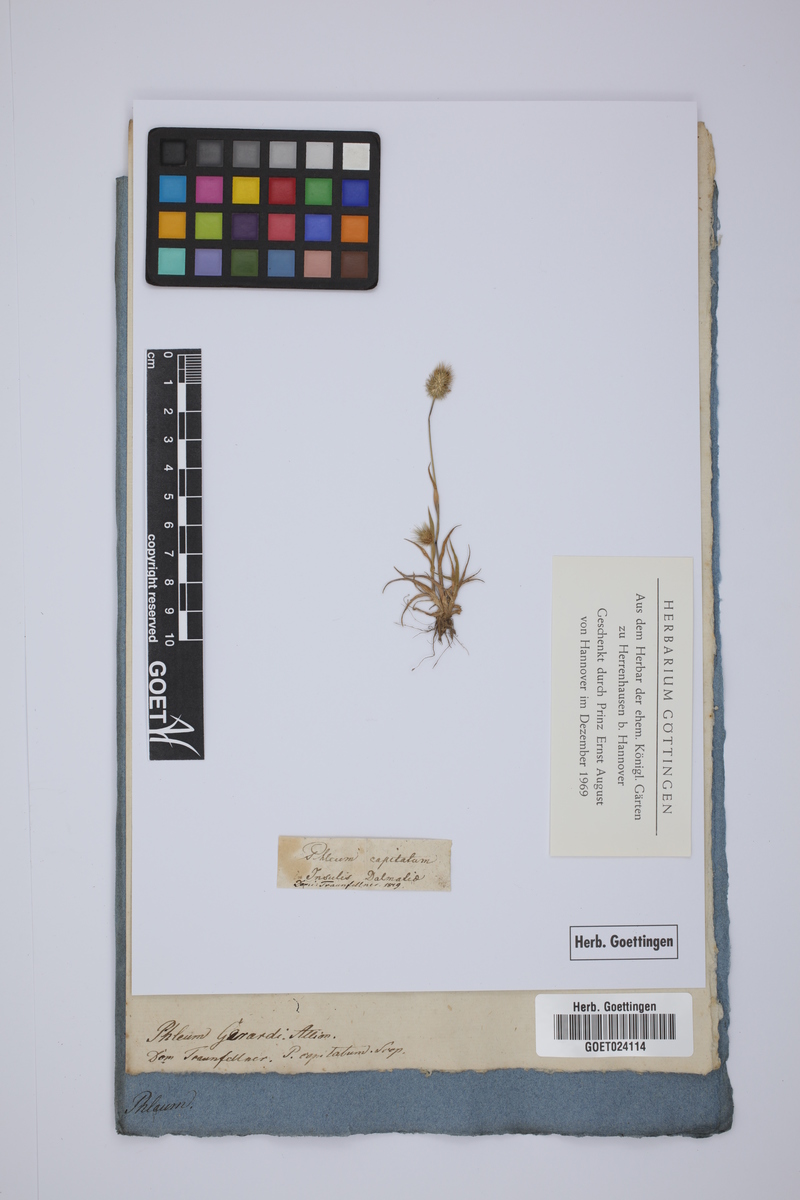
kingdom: Plantae
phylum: Tracheophyta
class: Liliopsida
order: Poales
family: Poaceae
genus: Phleum
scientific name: Phleum alpinum
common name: Alpine cat's-tail
